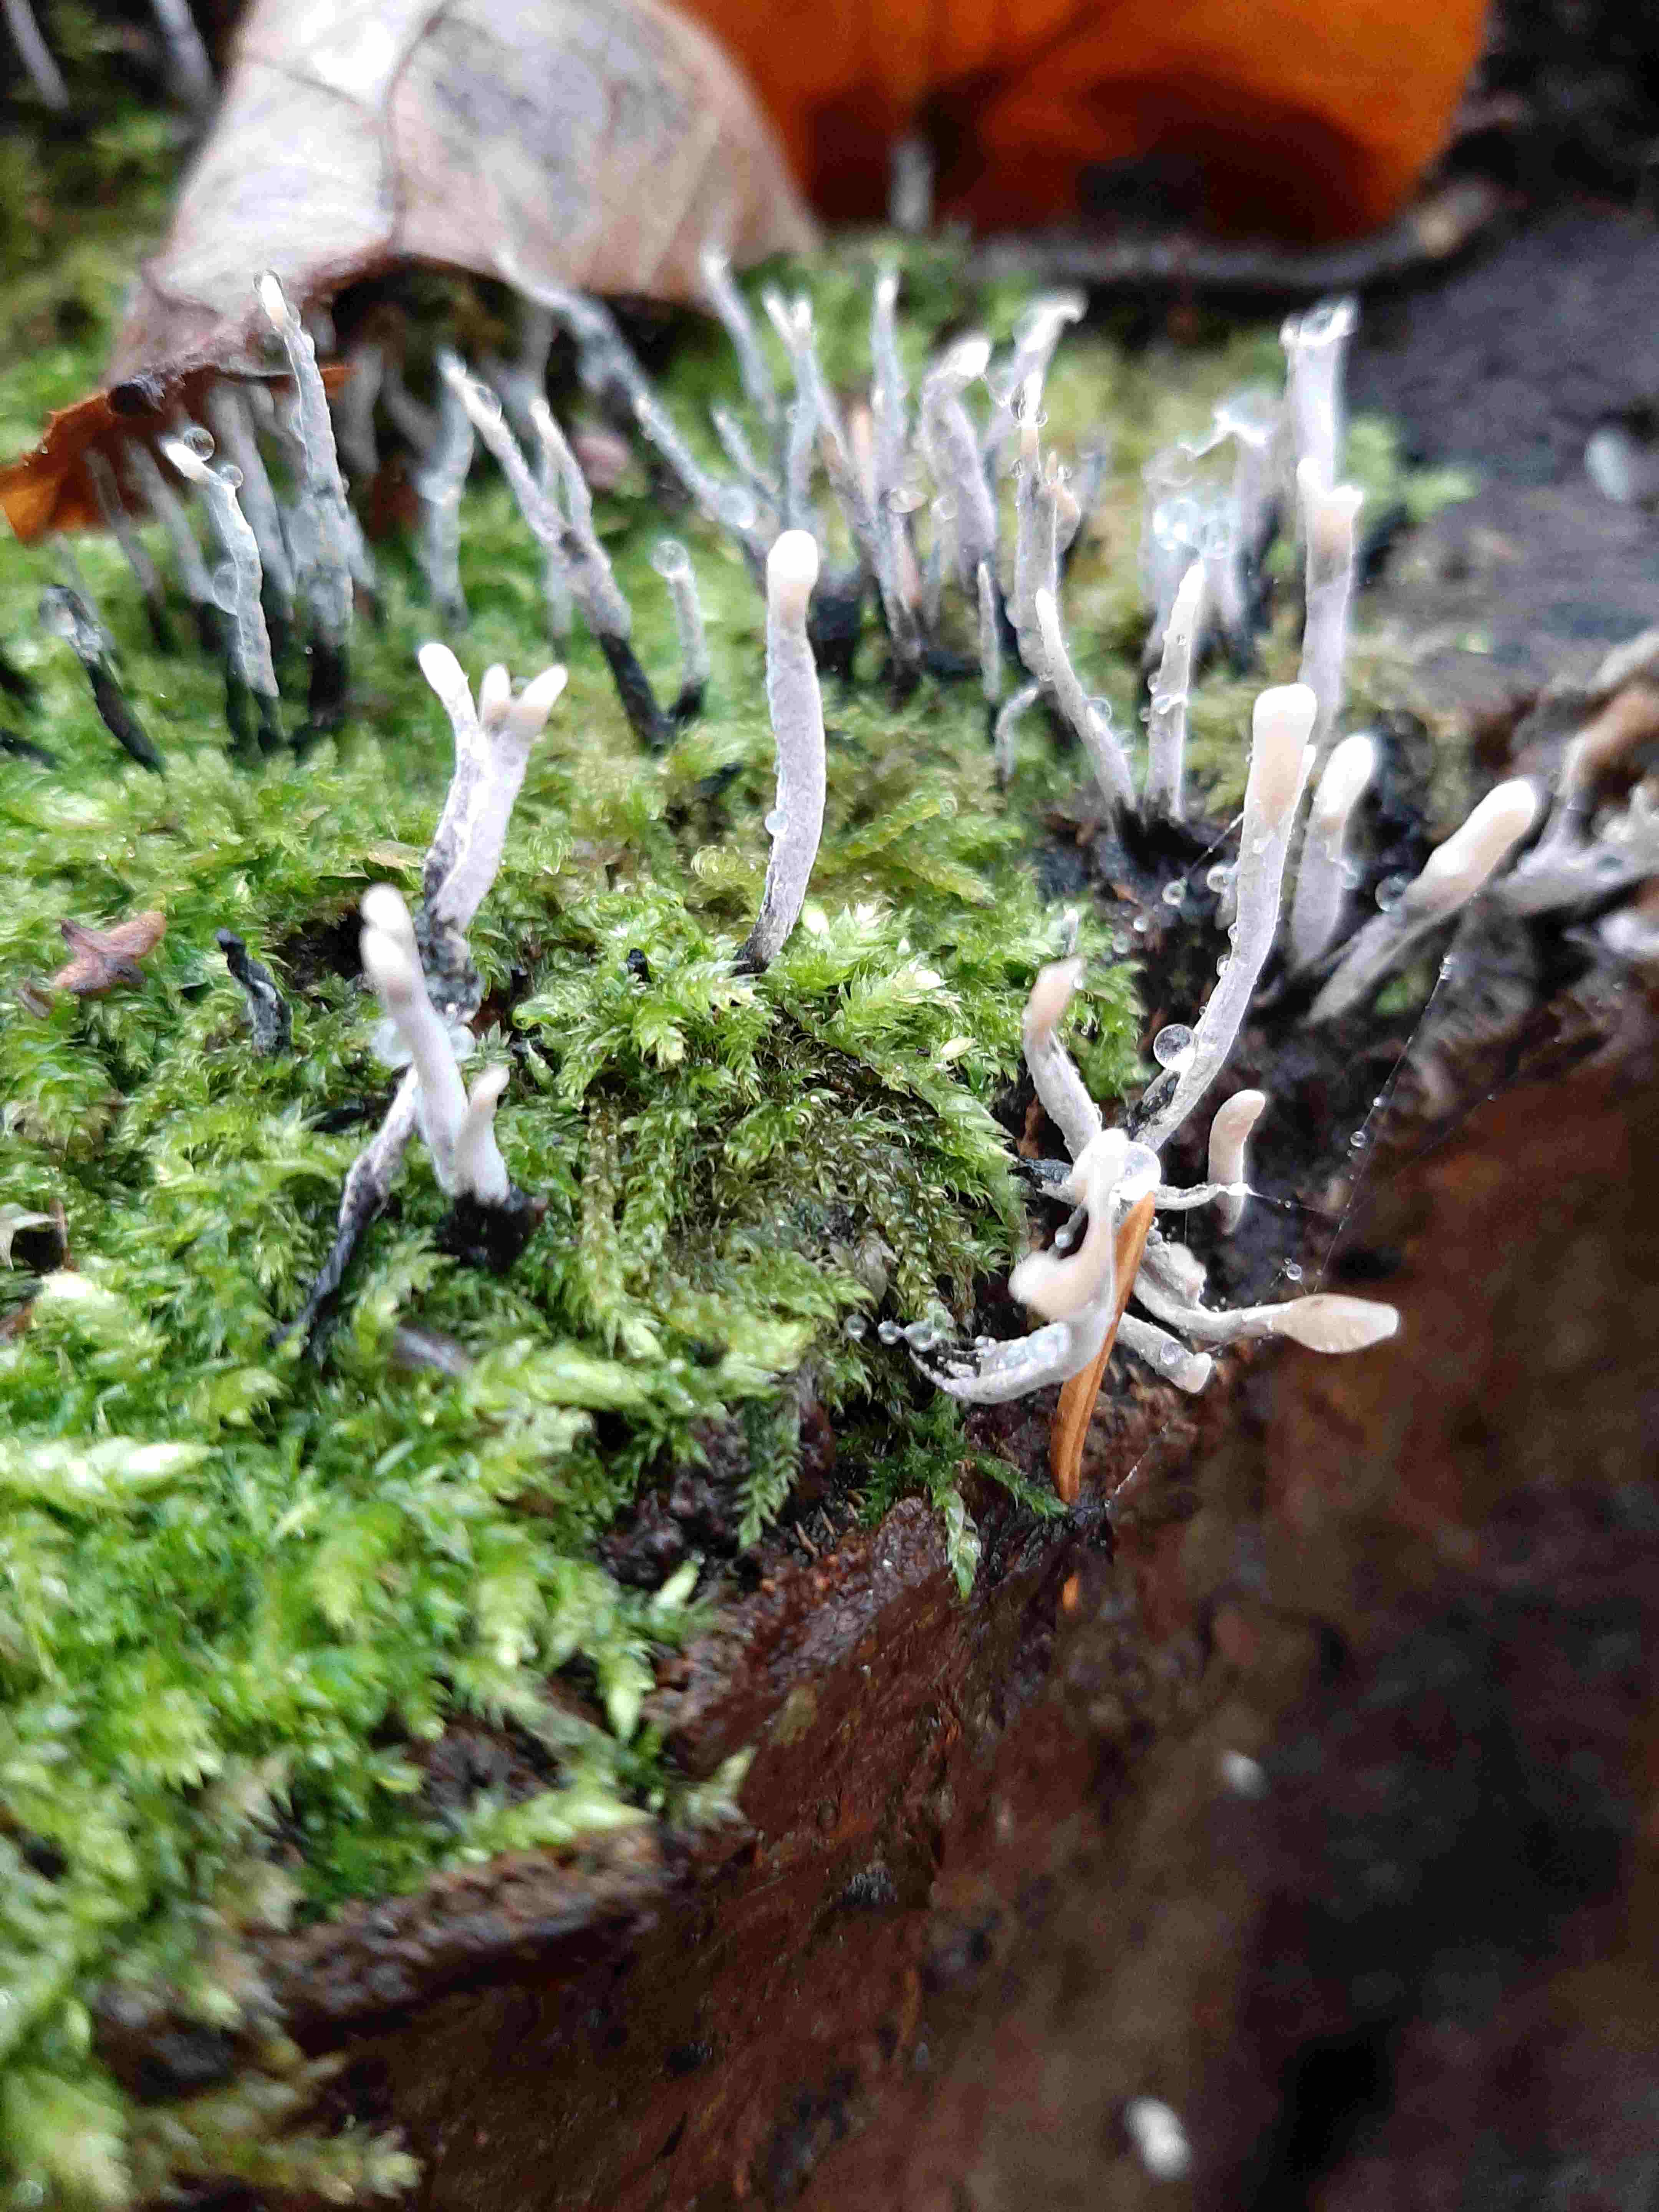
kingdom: Fungi
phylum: Ascomycota
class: Sordariomycetes
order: Xylariales
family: Xylariaceae
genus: Xylaria
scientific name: Xylaria hypoxylon
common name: grenet stødsvamp
